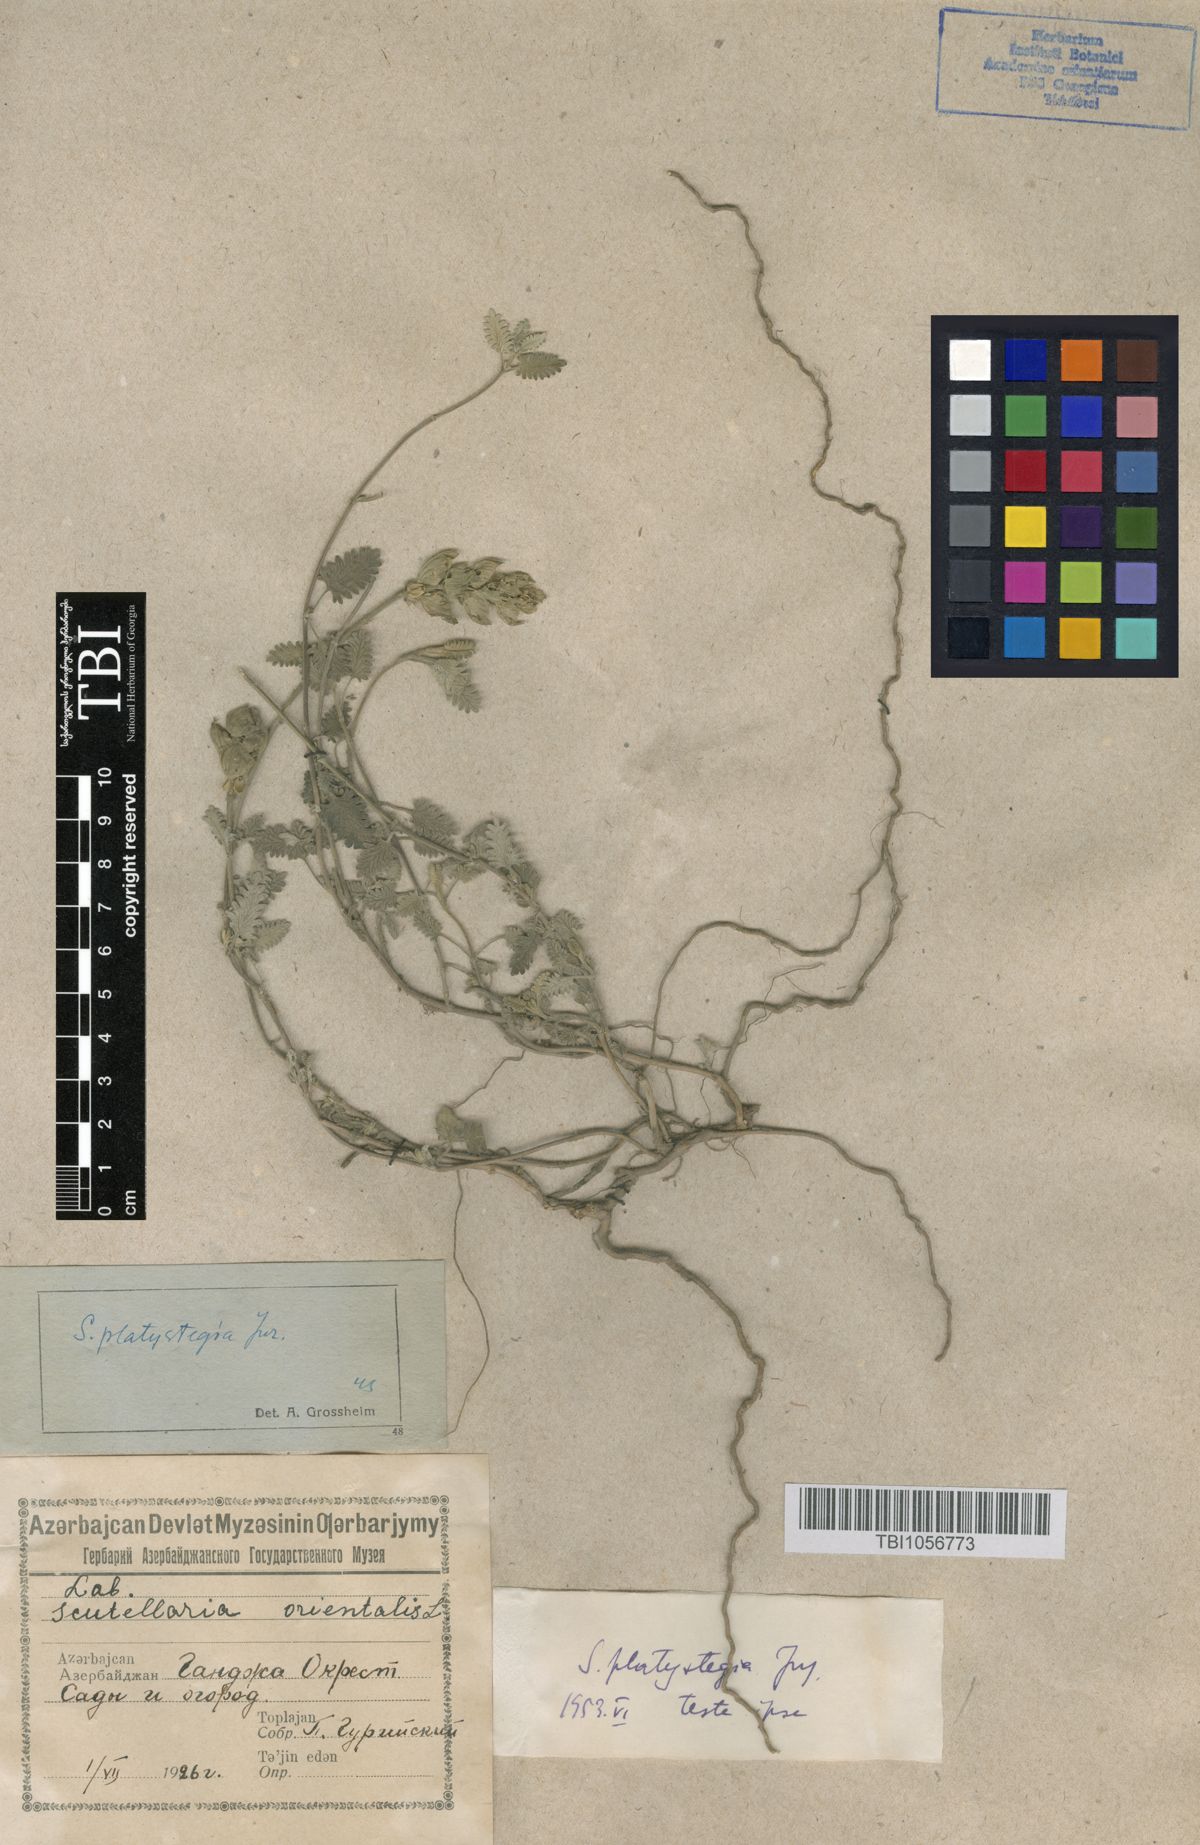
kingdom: Plantae
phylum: Tracheophyta
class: Magnoliopsida
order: Lamiales
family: Lamiaceae
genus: Scutellaria
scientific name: Scutellaria platystegia
